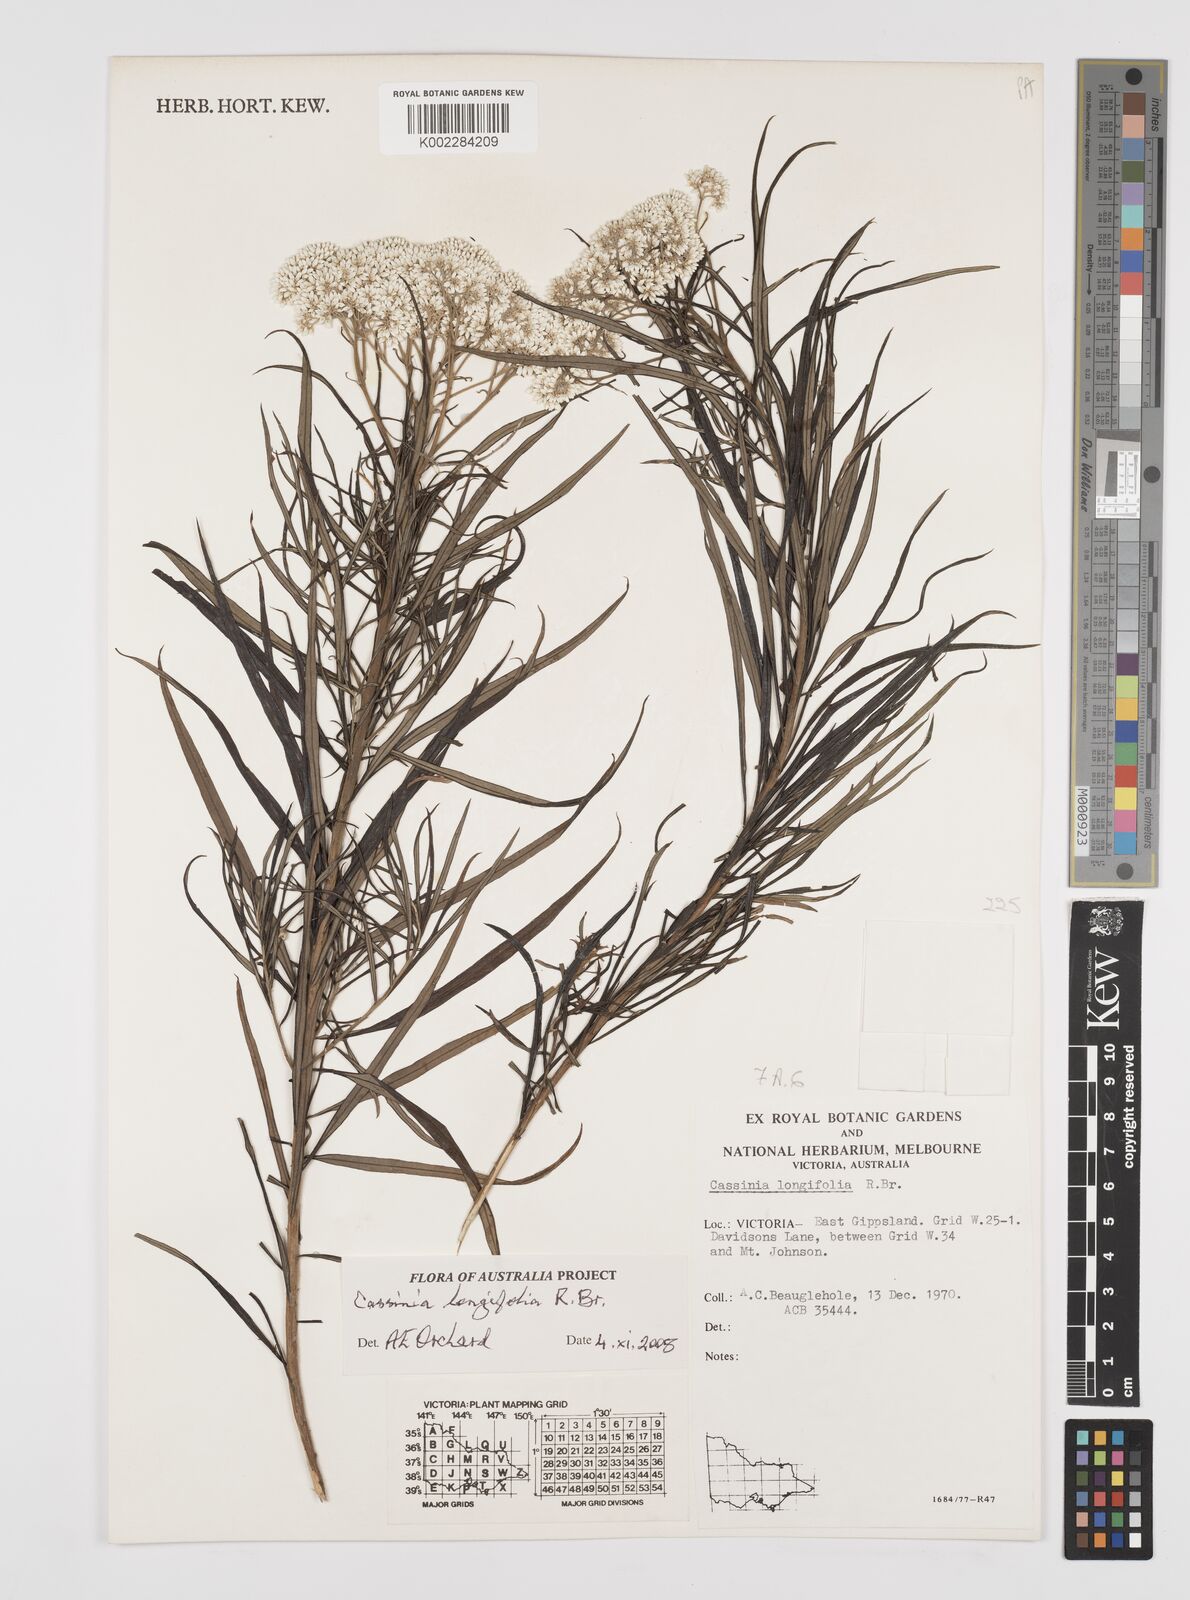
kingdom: Plantae
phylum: Tracheophyta
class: Magnoliopsida
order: Asterales
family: Asteraceae
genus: Cassinia
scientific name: Cassinia longifolia
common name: Longleaf-dogwood
